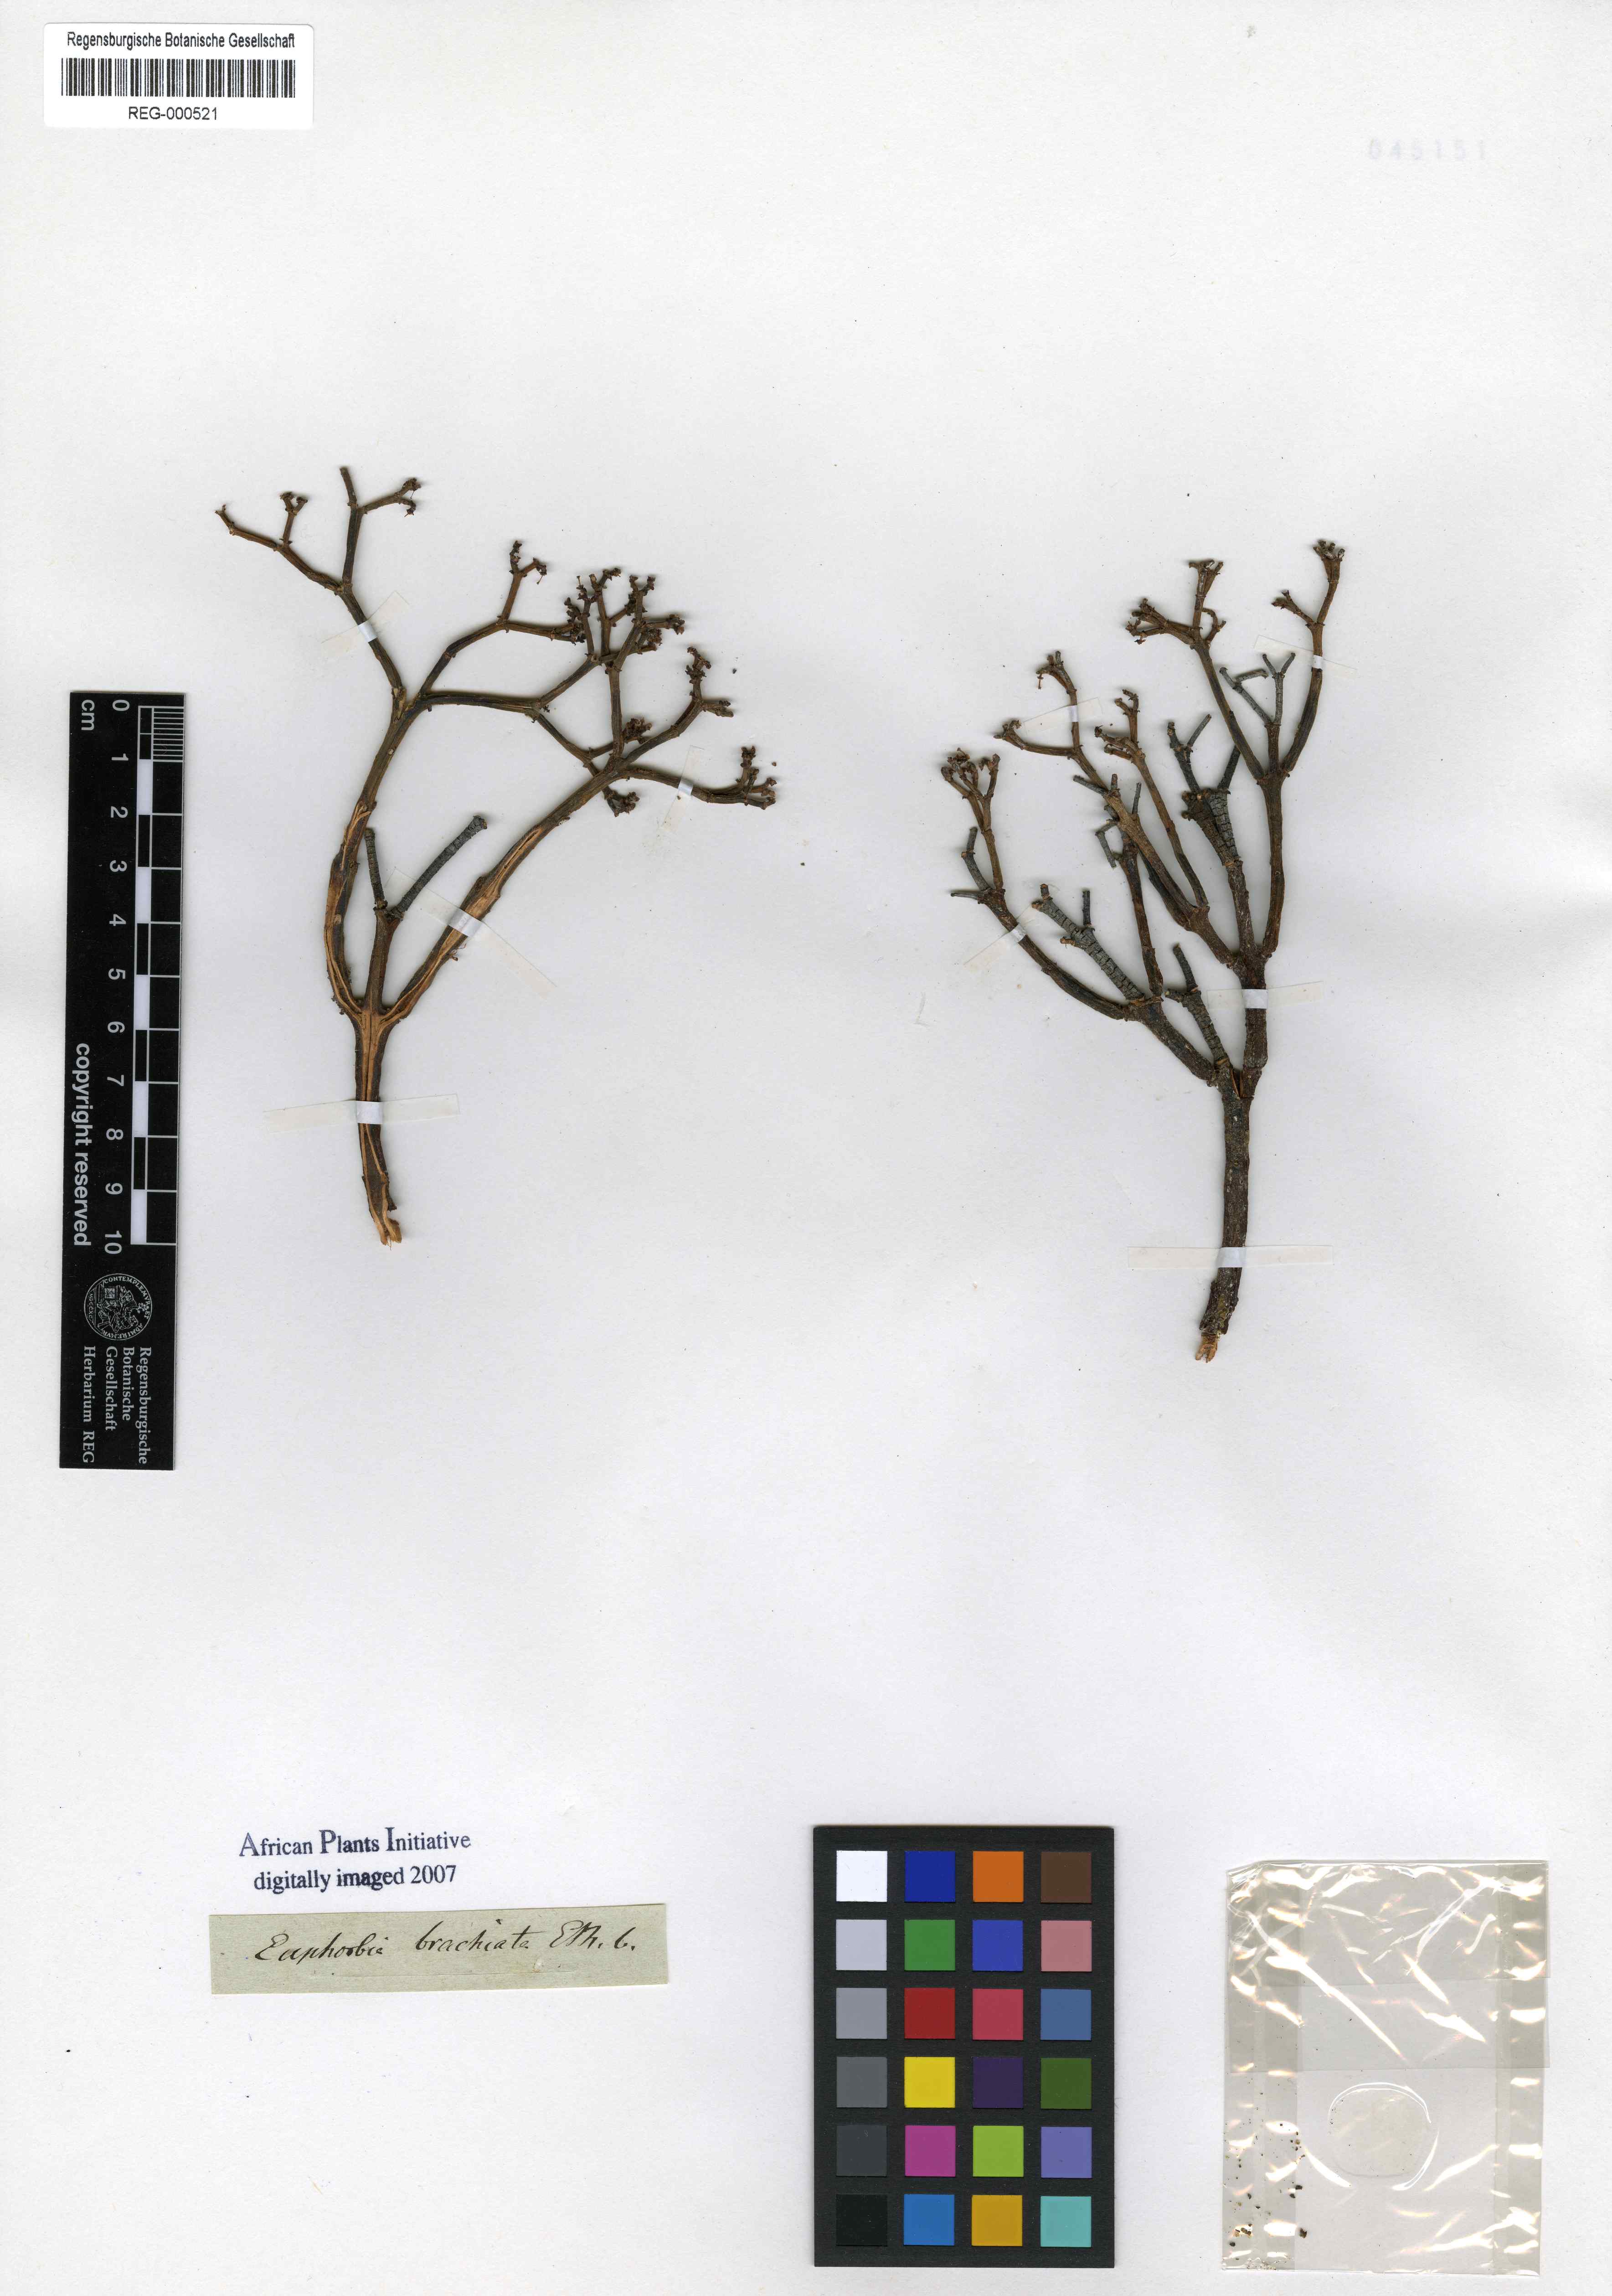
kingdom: Plantae
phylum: Tracheophyta
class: Magnoliopsida
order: Malpighiales
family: Euphorbiaceae
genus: Euphorbia
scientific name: Euphorbia brachiata
